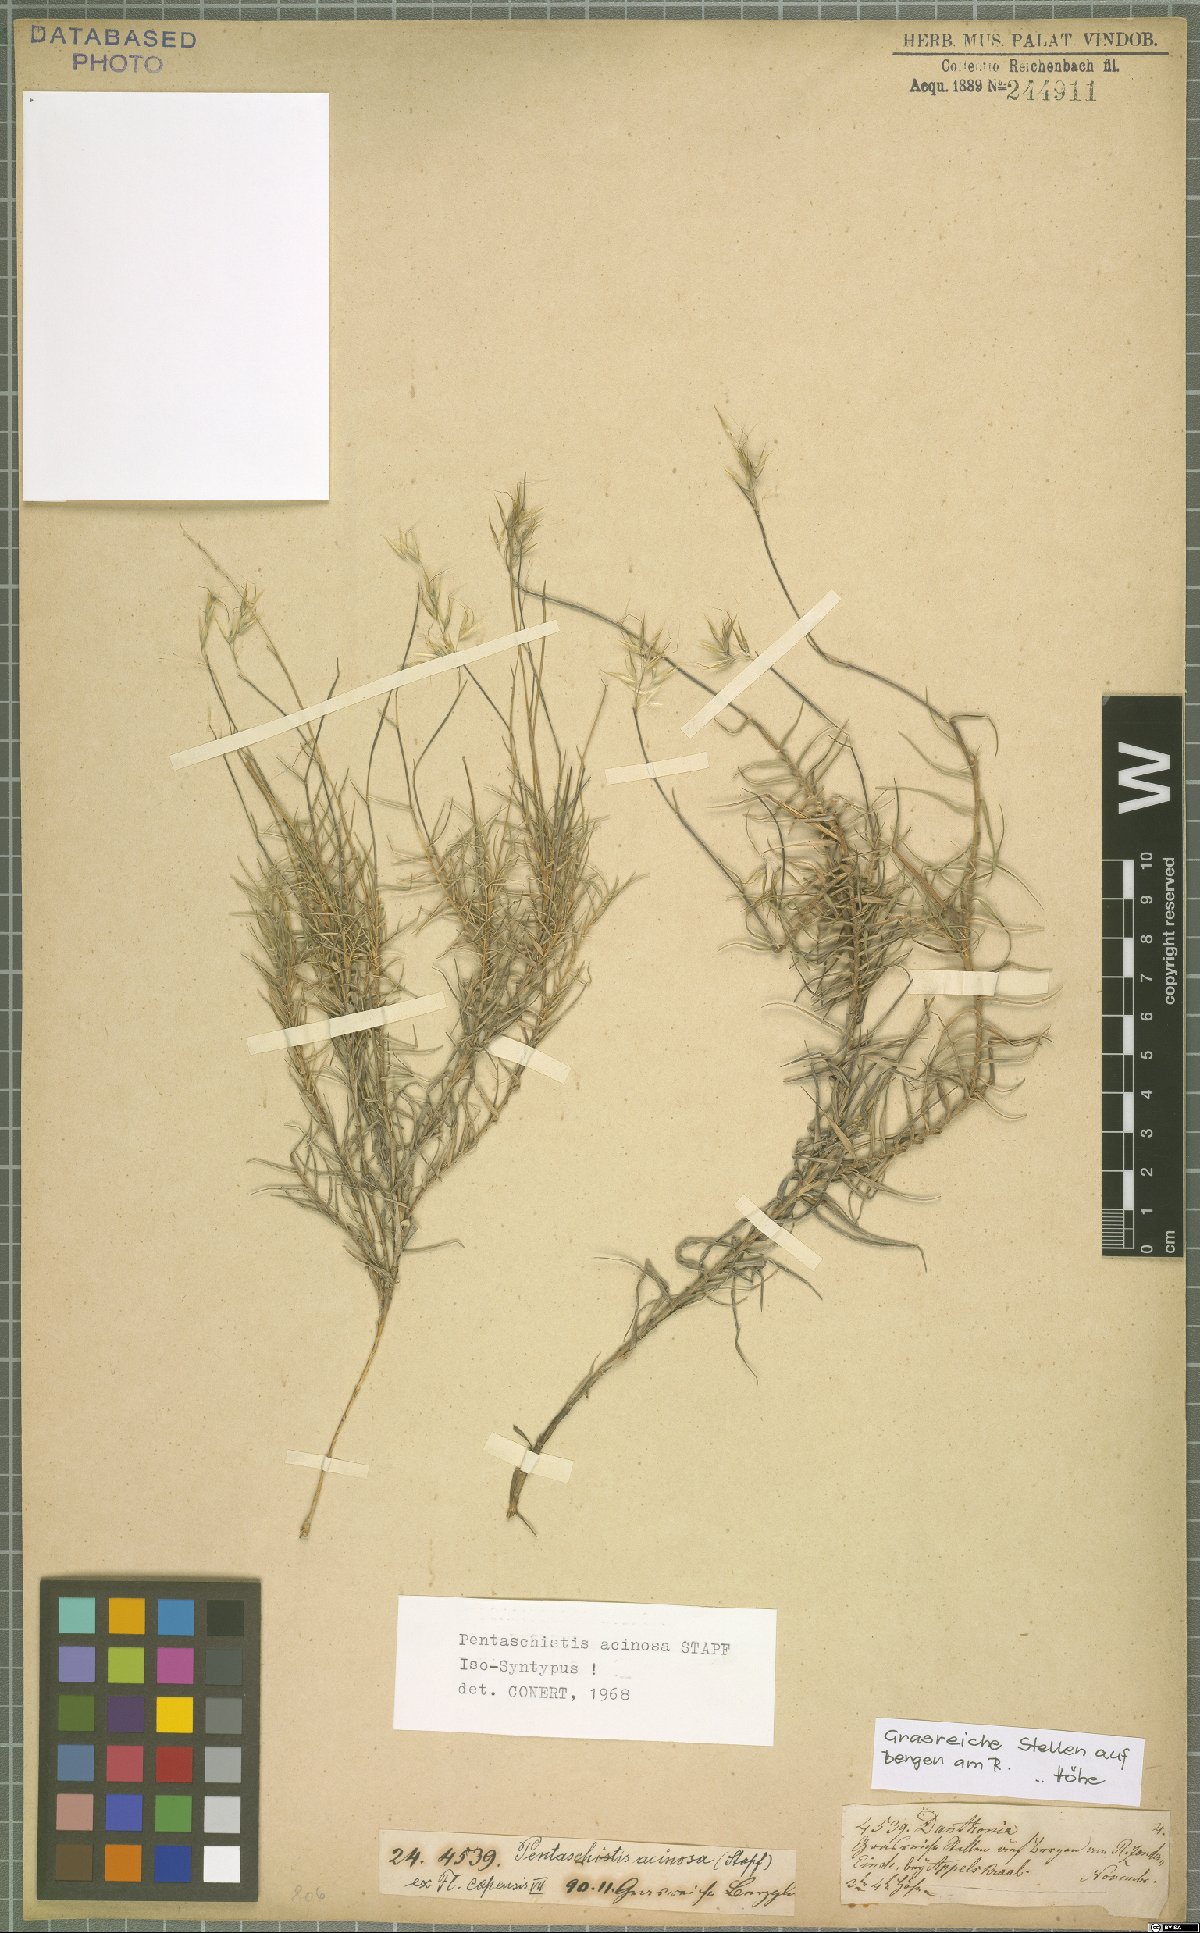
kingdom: Plantae
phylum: Tracheophyta
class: Liliopsida
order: Poales
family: Poaceae
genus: Pentameris
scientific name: Pentameris acinosa
